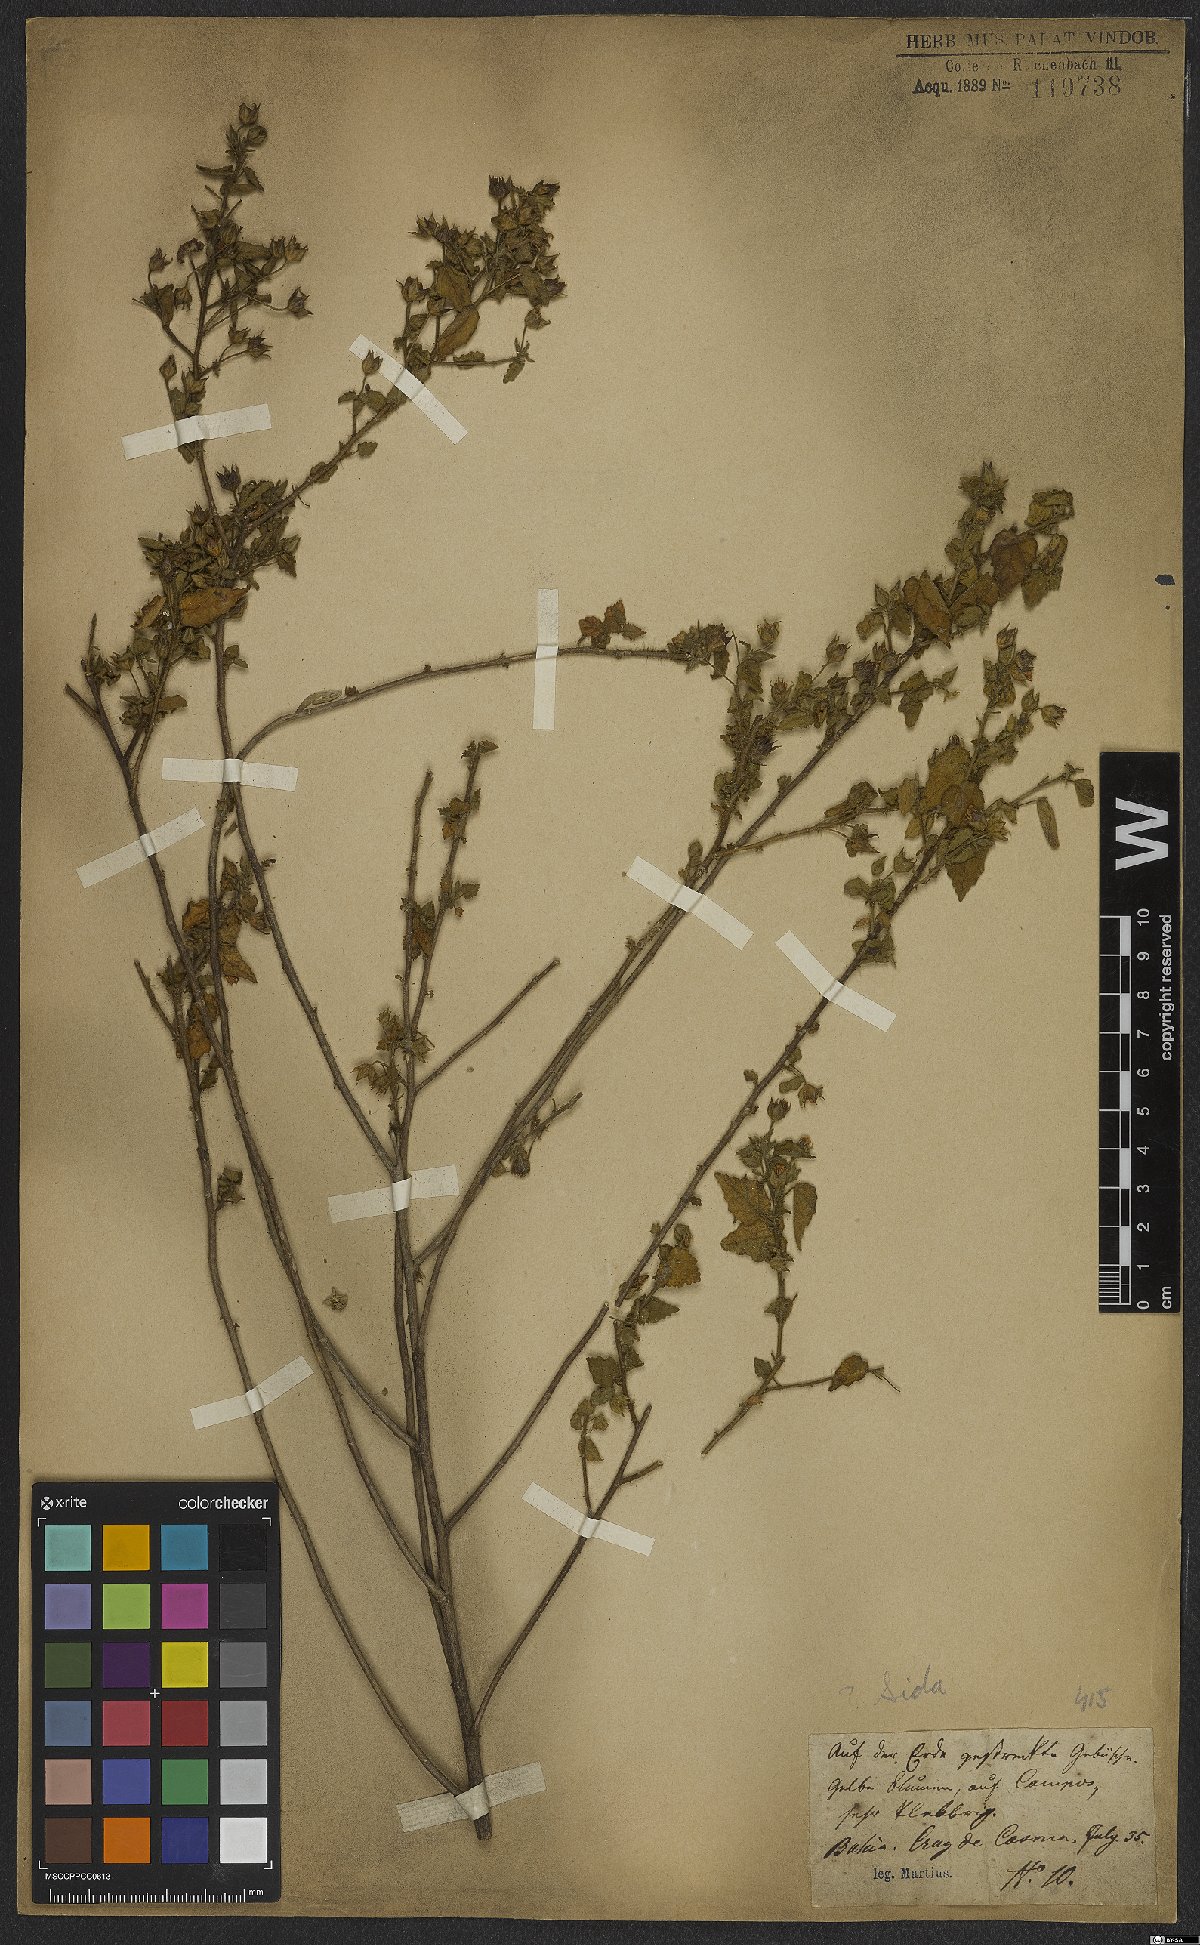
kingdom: Plantae
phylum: Tracheophyta
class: Magnoliopsida
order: Malvales
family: Malvaceae
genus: Sida
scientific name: Sida
